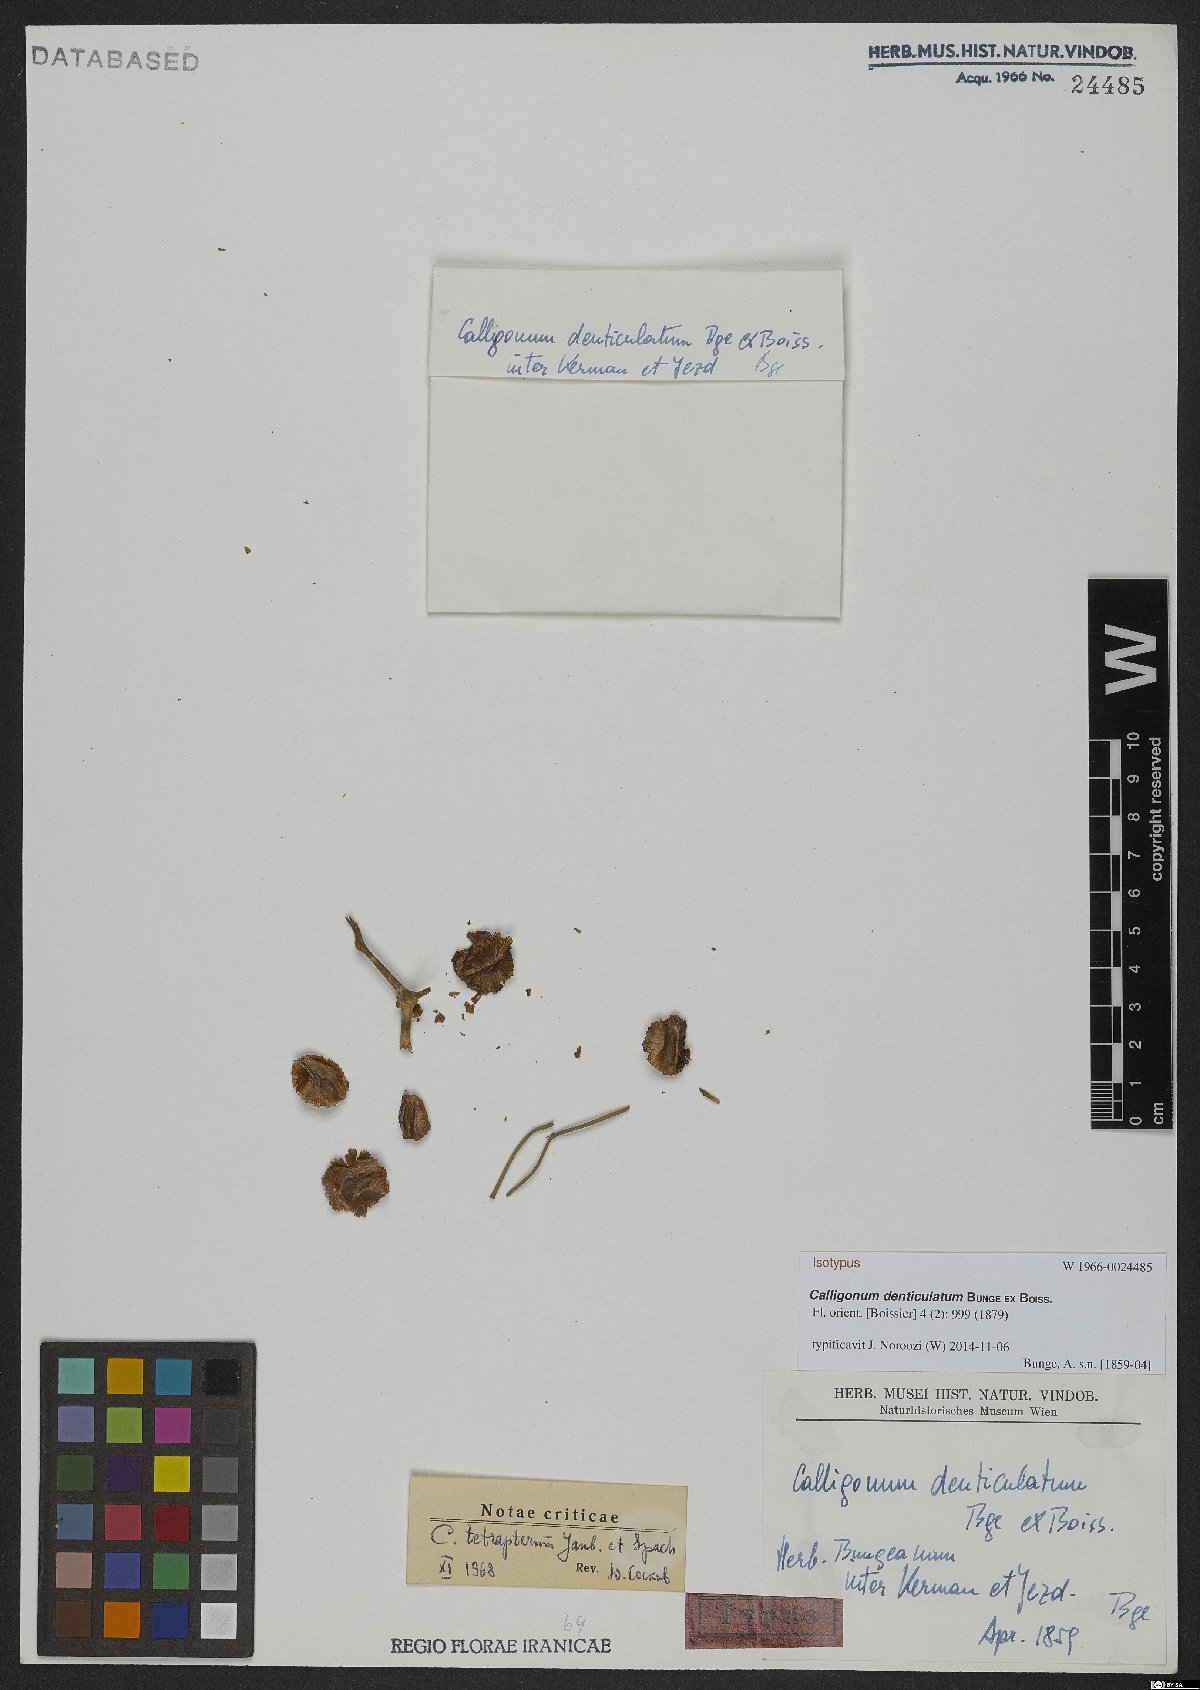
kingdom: Plantae
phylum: Tracheophyta
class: Magnoliopsida
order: Caryophyllales
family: Polygonaceae
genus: Calligonum
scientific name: Calligonum tetrapterum
